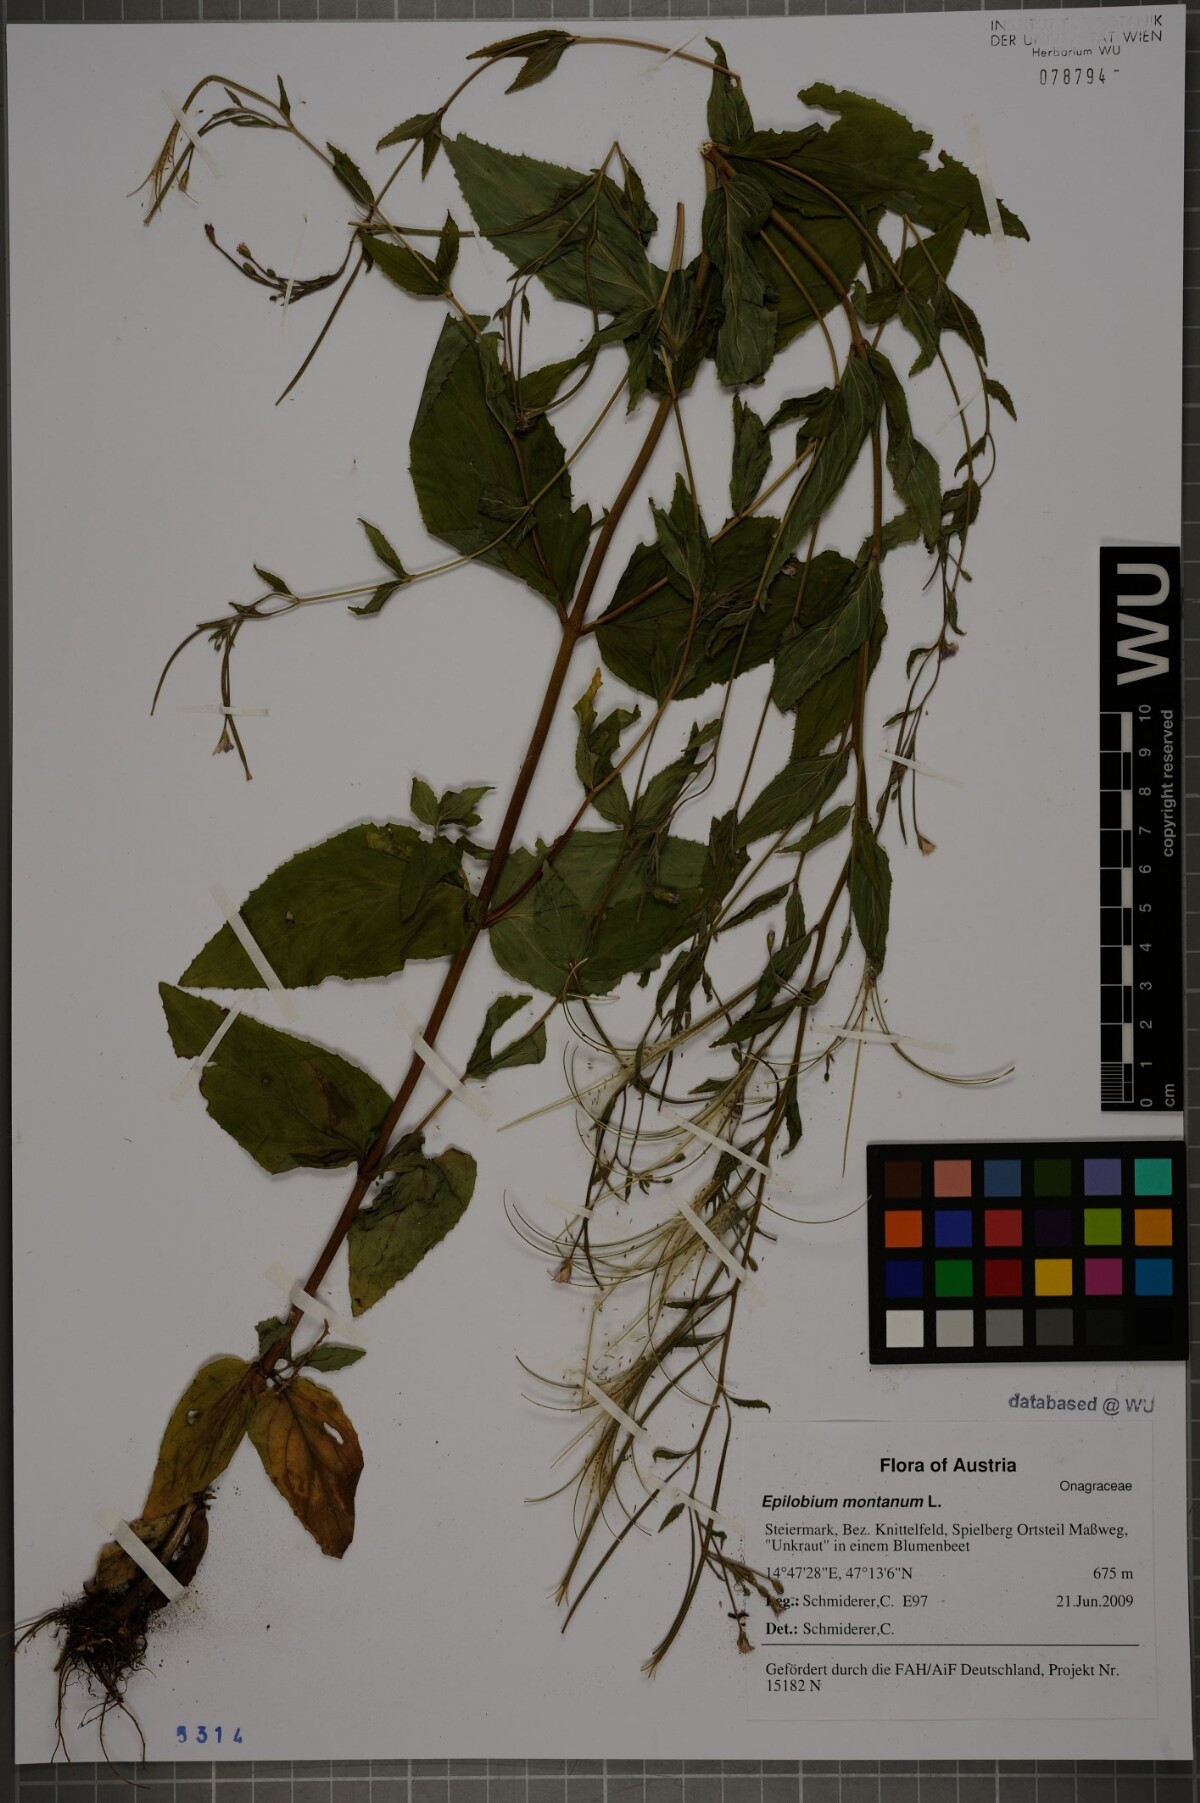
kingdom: Plantae
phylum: Tracheophyta
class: Magnoliopsida
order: Myrtales
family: Onagraceae
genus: Epilobium
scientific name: Epilobium montanum
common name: Broad-leaved willowherb
